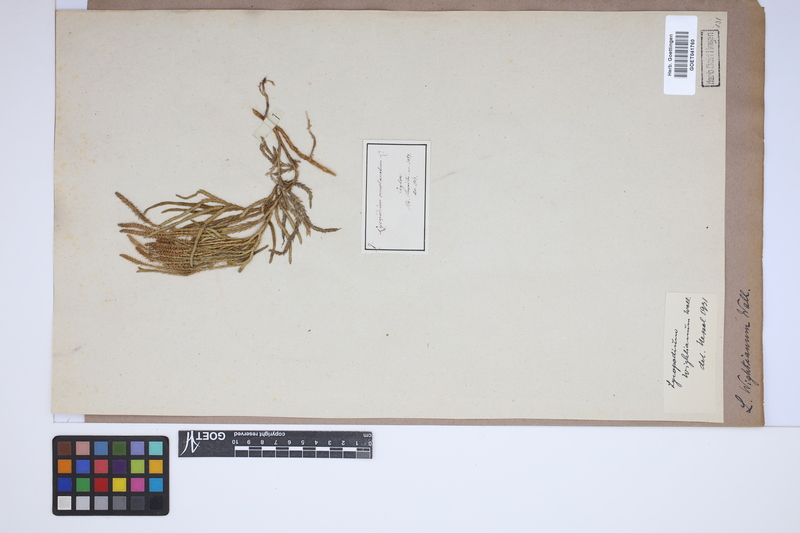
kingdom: Plantae
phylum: Tracheophyta
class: Lycopodiopsida
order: Lycopodiales
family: Lycopodiaceae
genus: Diphasiastrum
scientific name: Diphasiastrum wightianum
